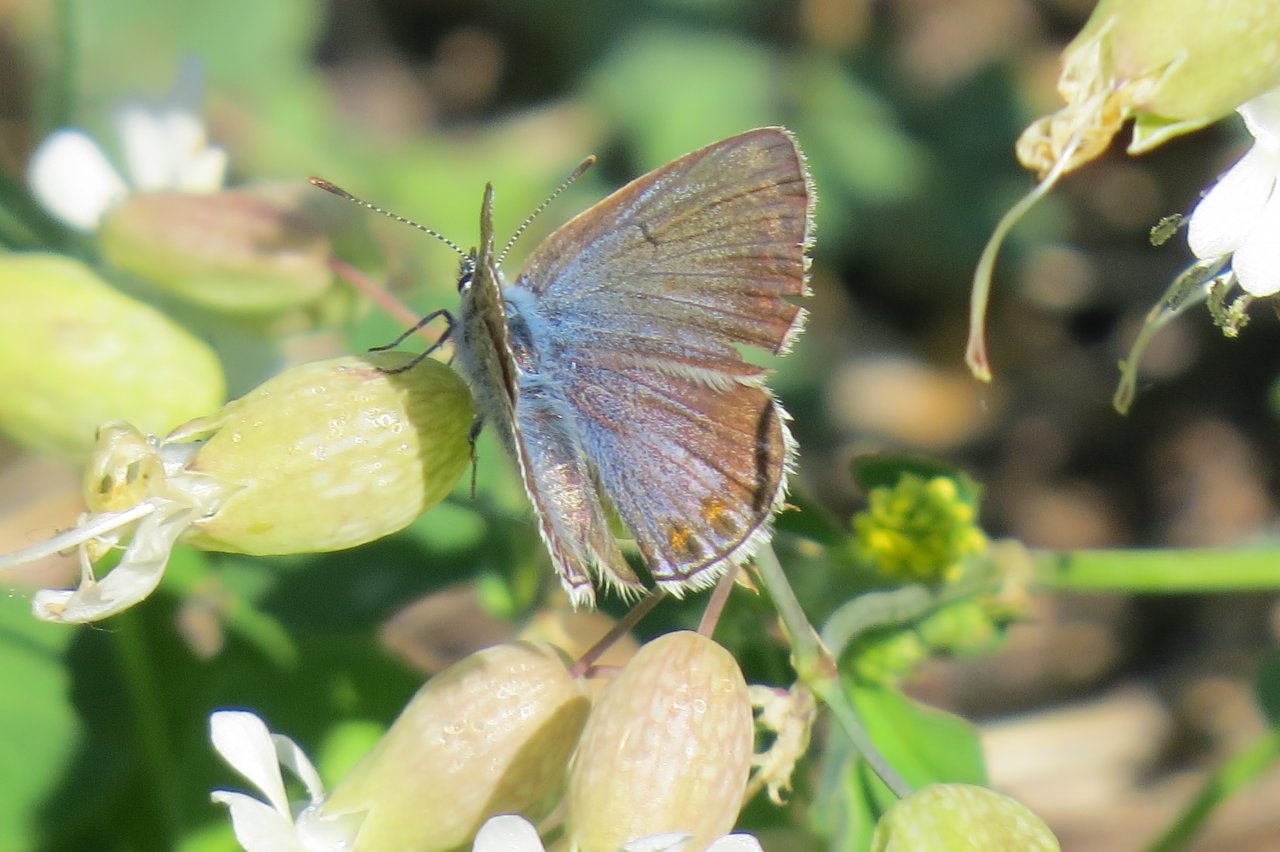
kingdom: Animalia
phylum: Arthropoda
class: Insecta
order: Lepidoptera
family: Lycaenidae
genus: Polyommatus
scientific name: Polyommatus icarus
